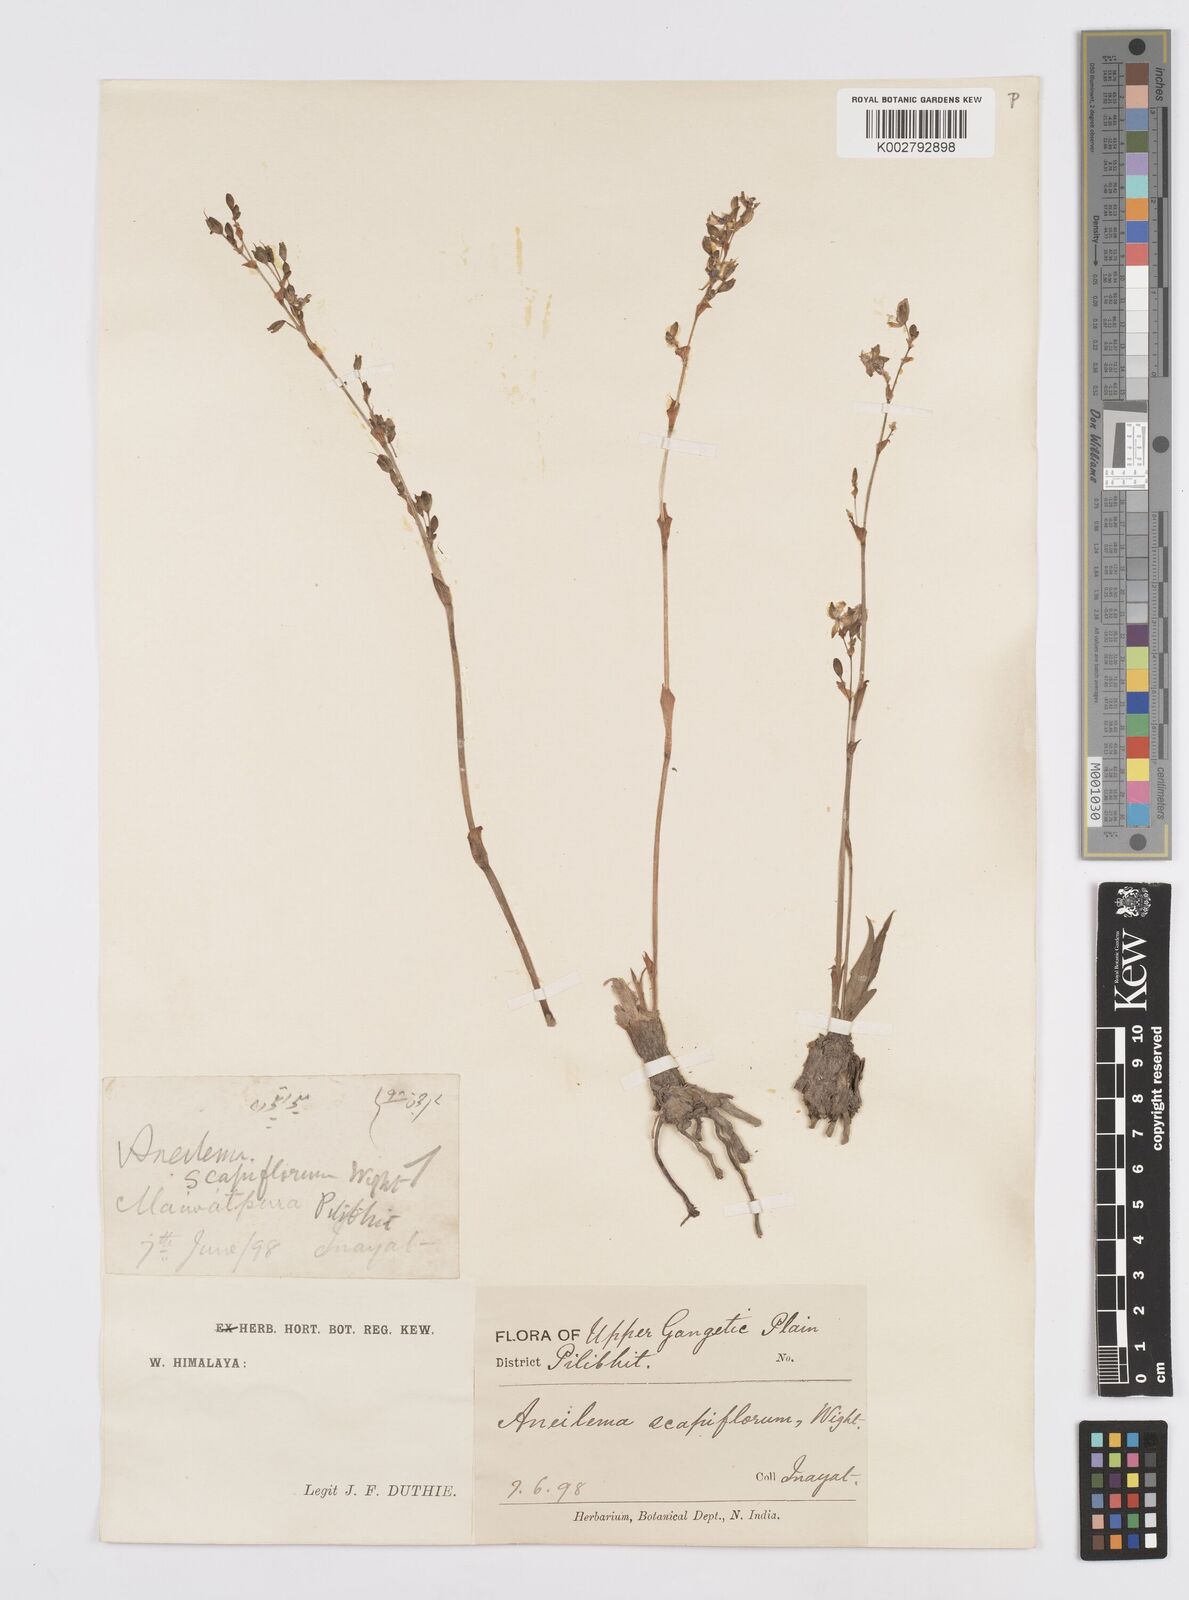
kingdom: Plantae
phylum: Tracheophyta
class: Liliopsida
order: Commelinales
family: Commelinaceae
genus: Murdannia
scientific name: Murdannia edulis
